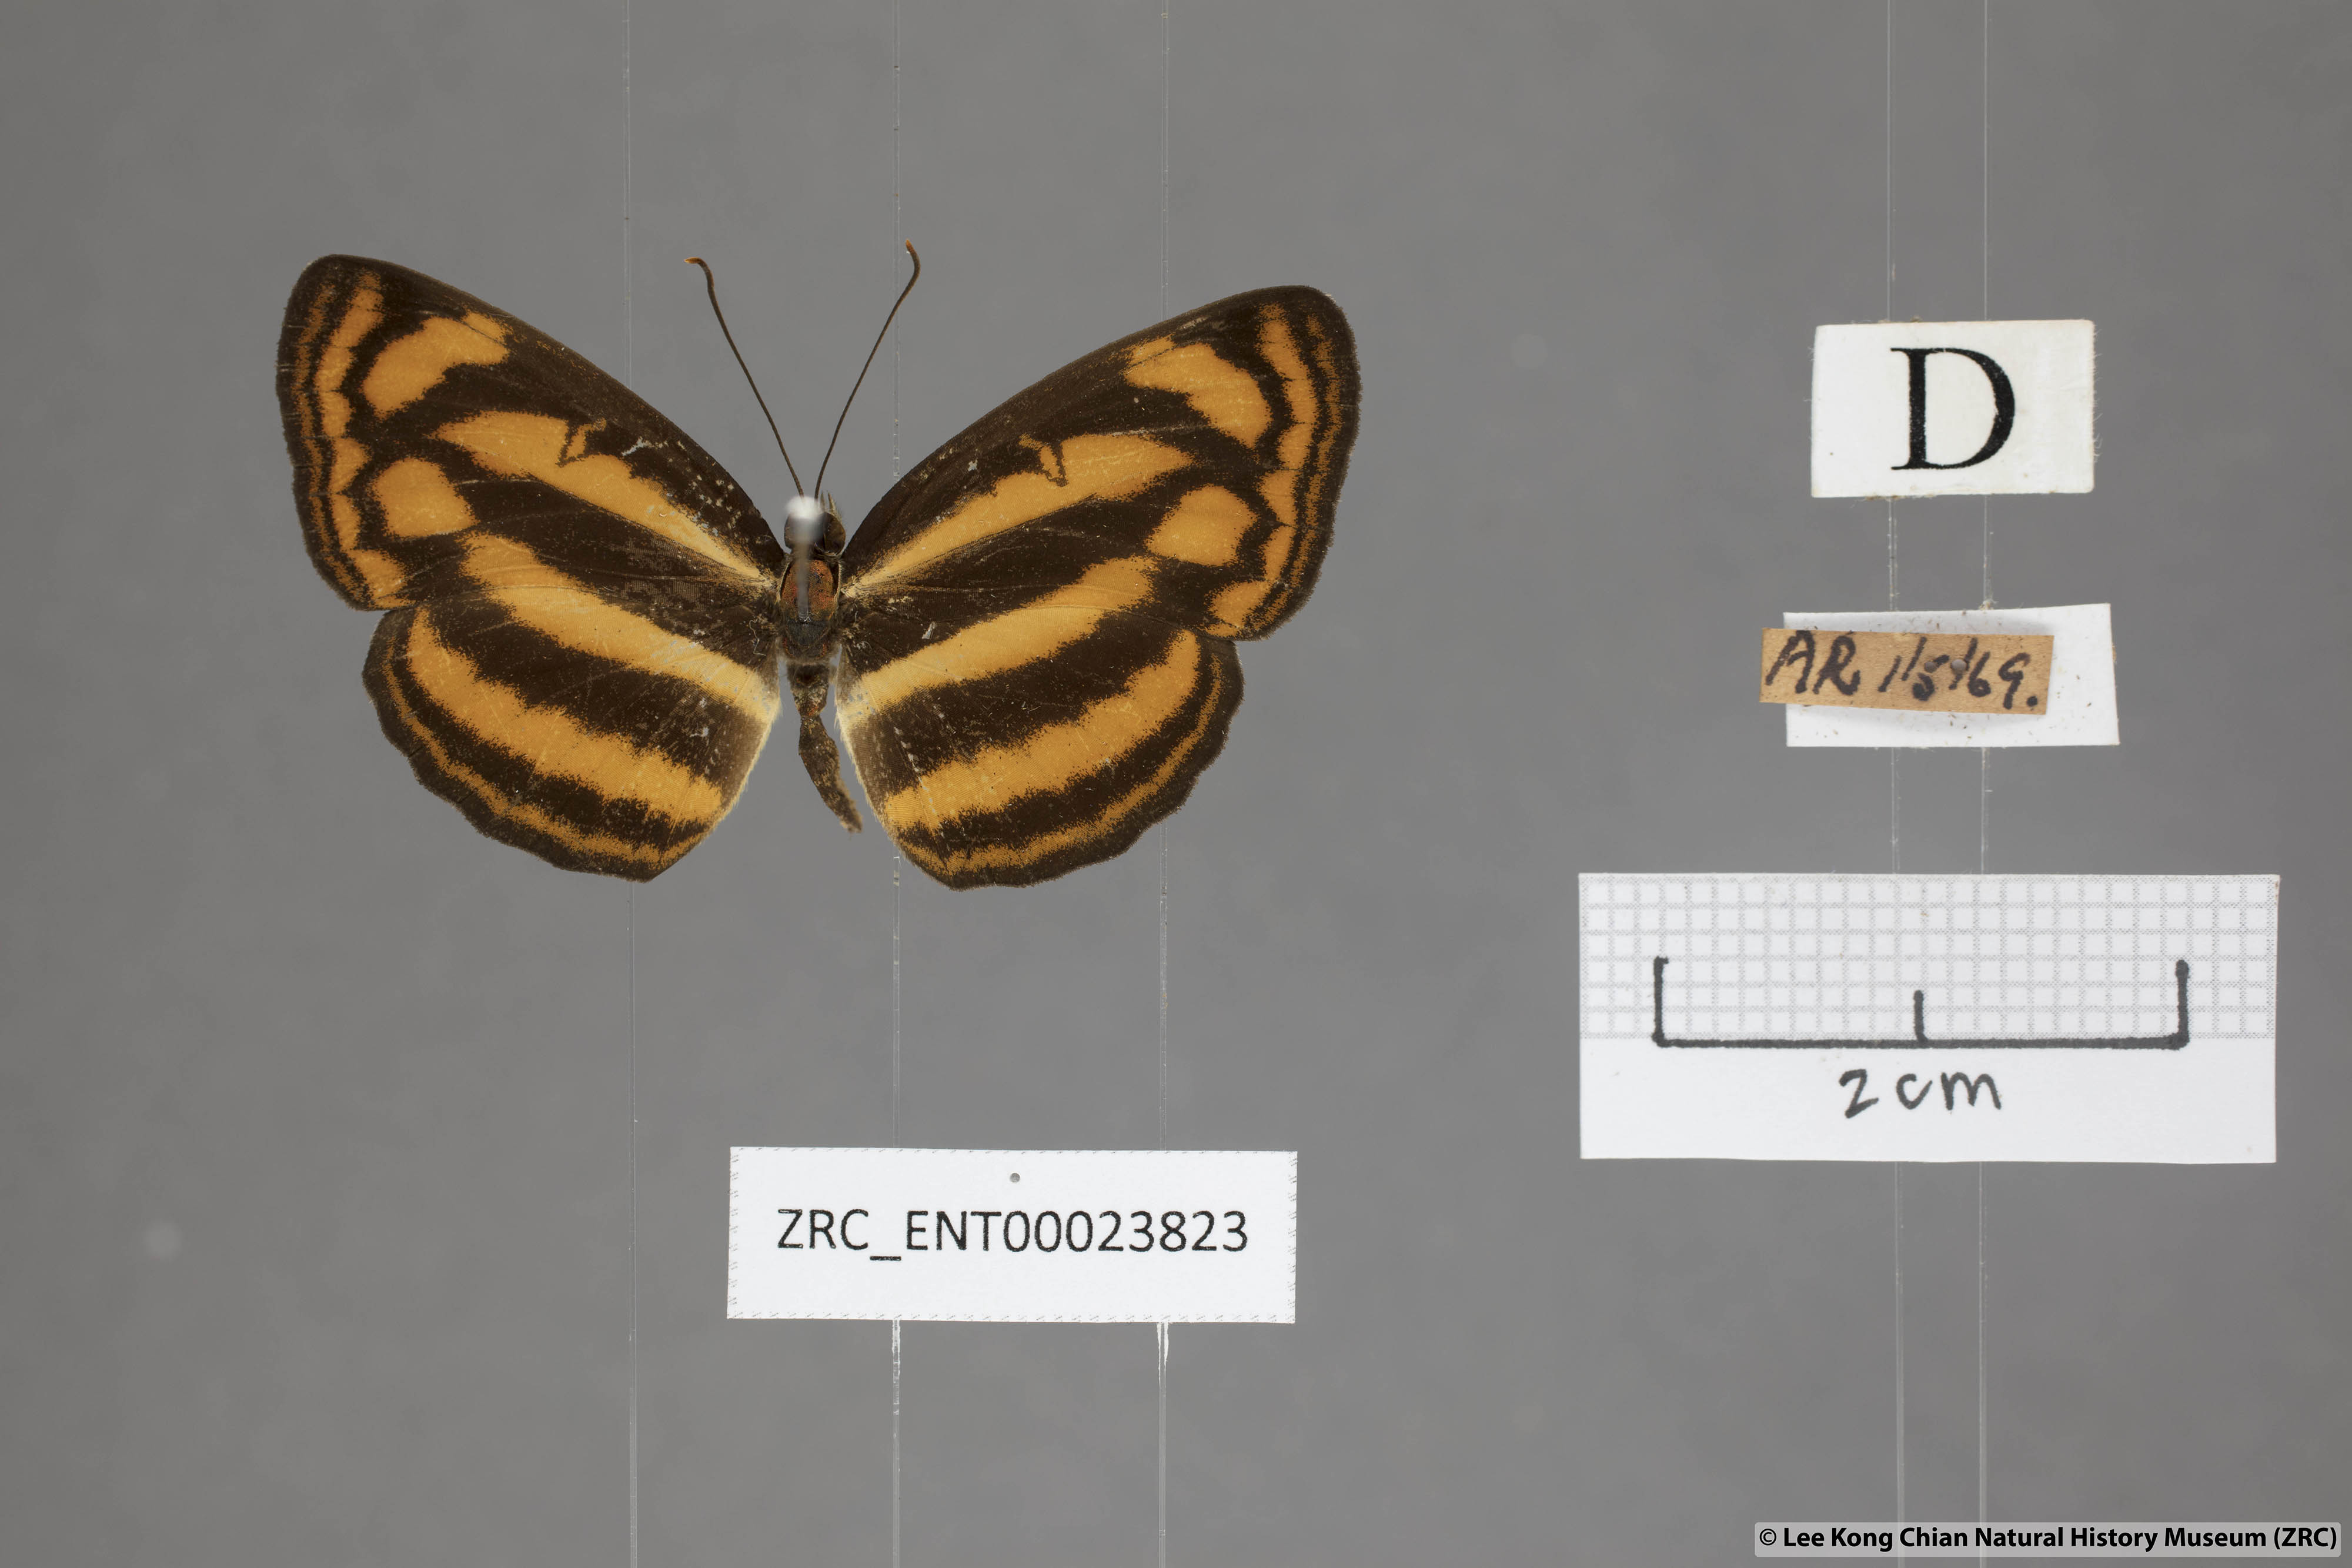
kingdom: Animalia
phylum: Arthropoda
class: Insecta
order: Lepidoptera
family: Nymphalidae
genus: Lasippa
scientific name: Lasippa heliodore
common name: Burmese lascar
